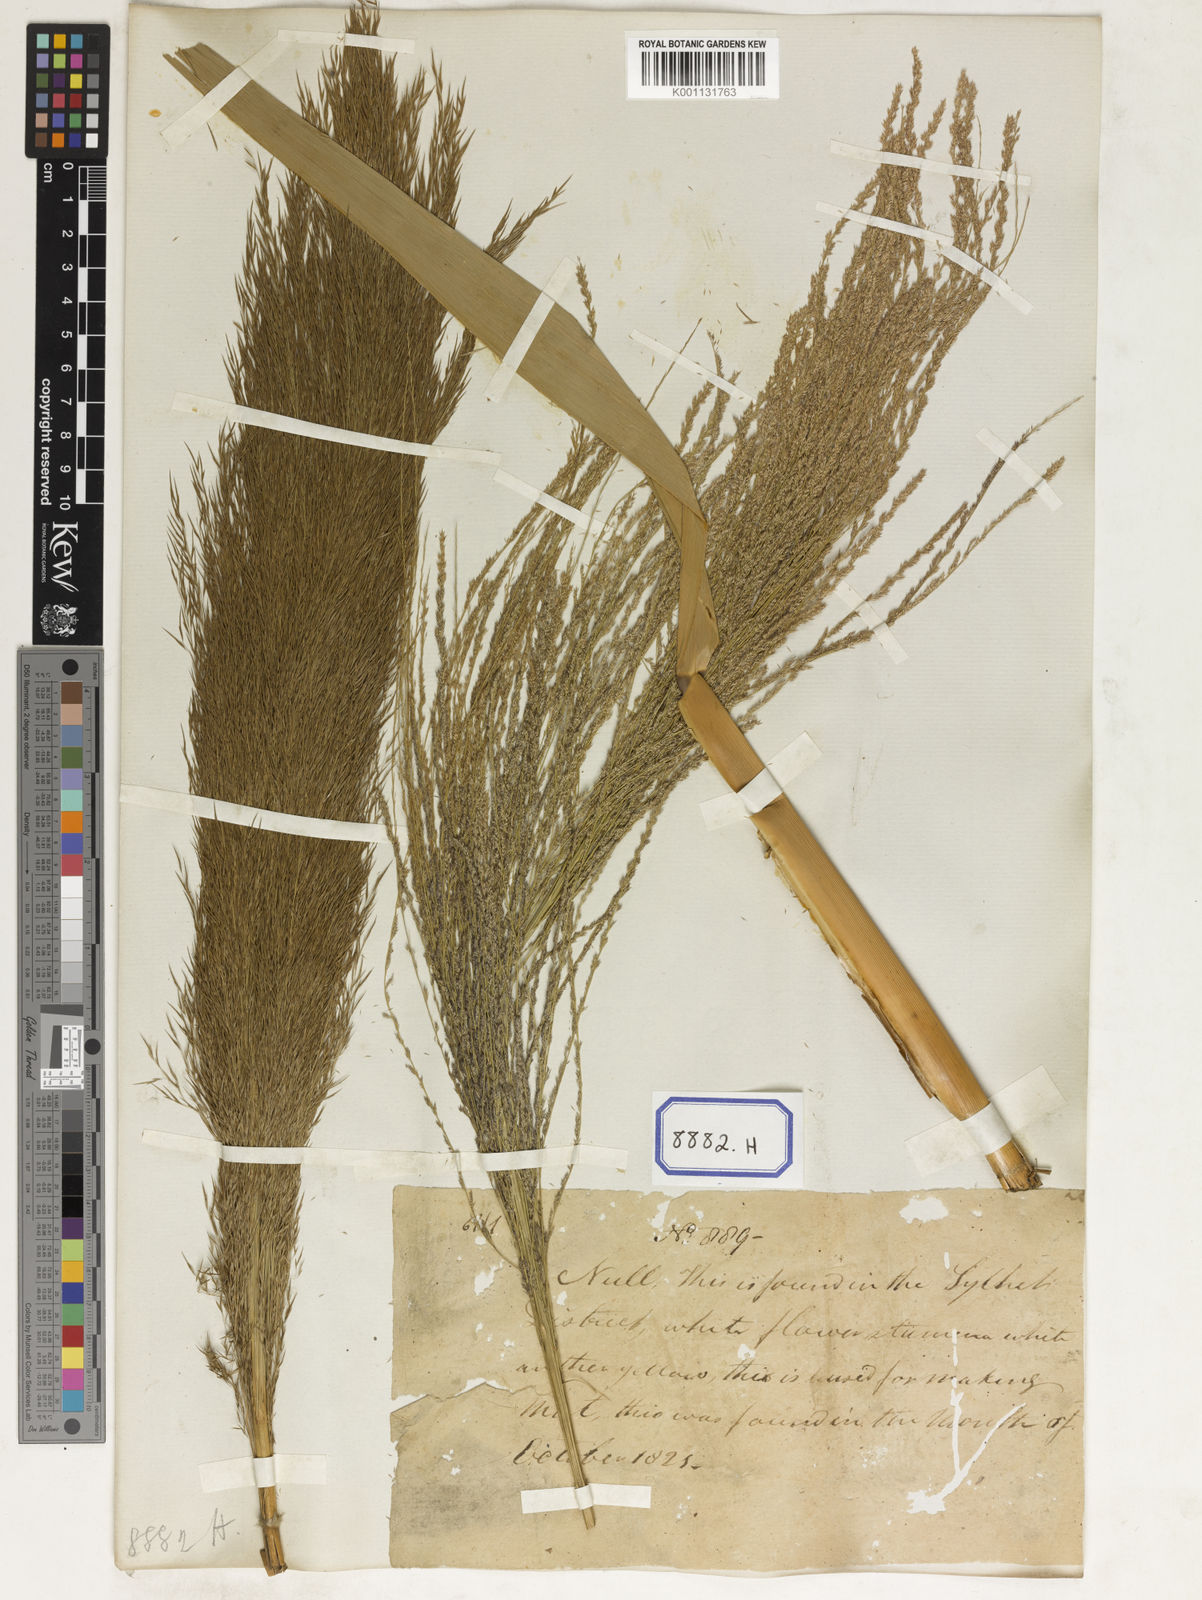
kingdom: Plantae
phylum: Tracheophyta
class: Liliopsida
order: Poales
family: Poaceae
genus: Thysanolaena
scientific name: Thysanolaena latifolia
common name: Tiger grass
